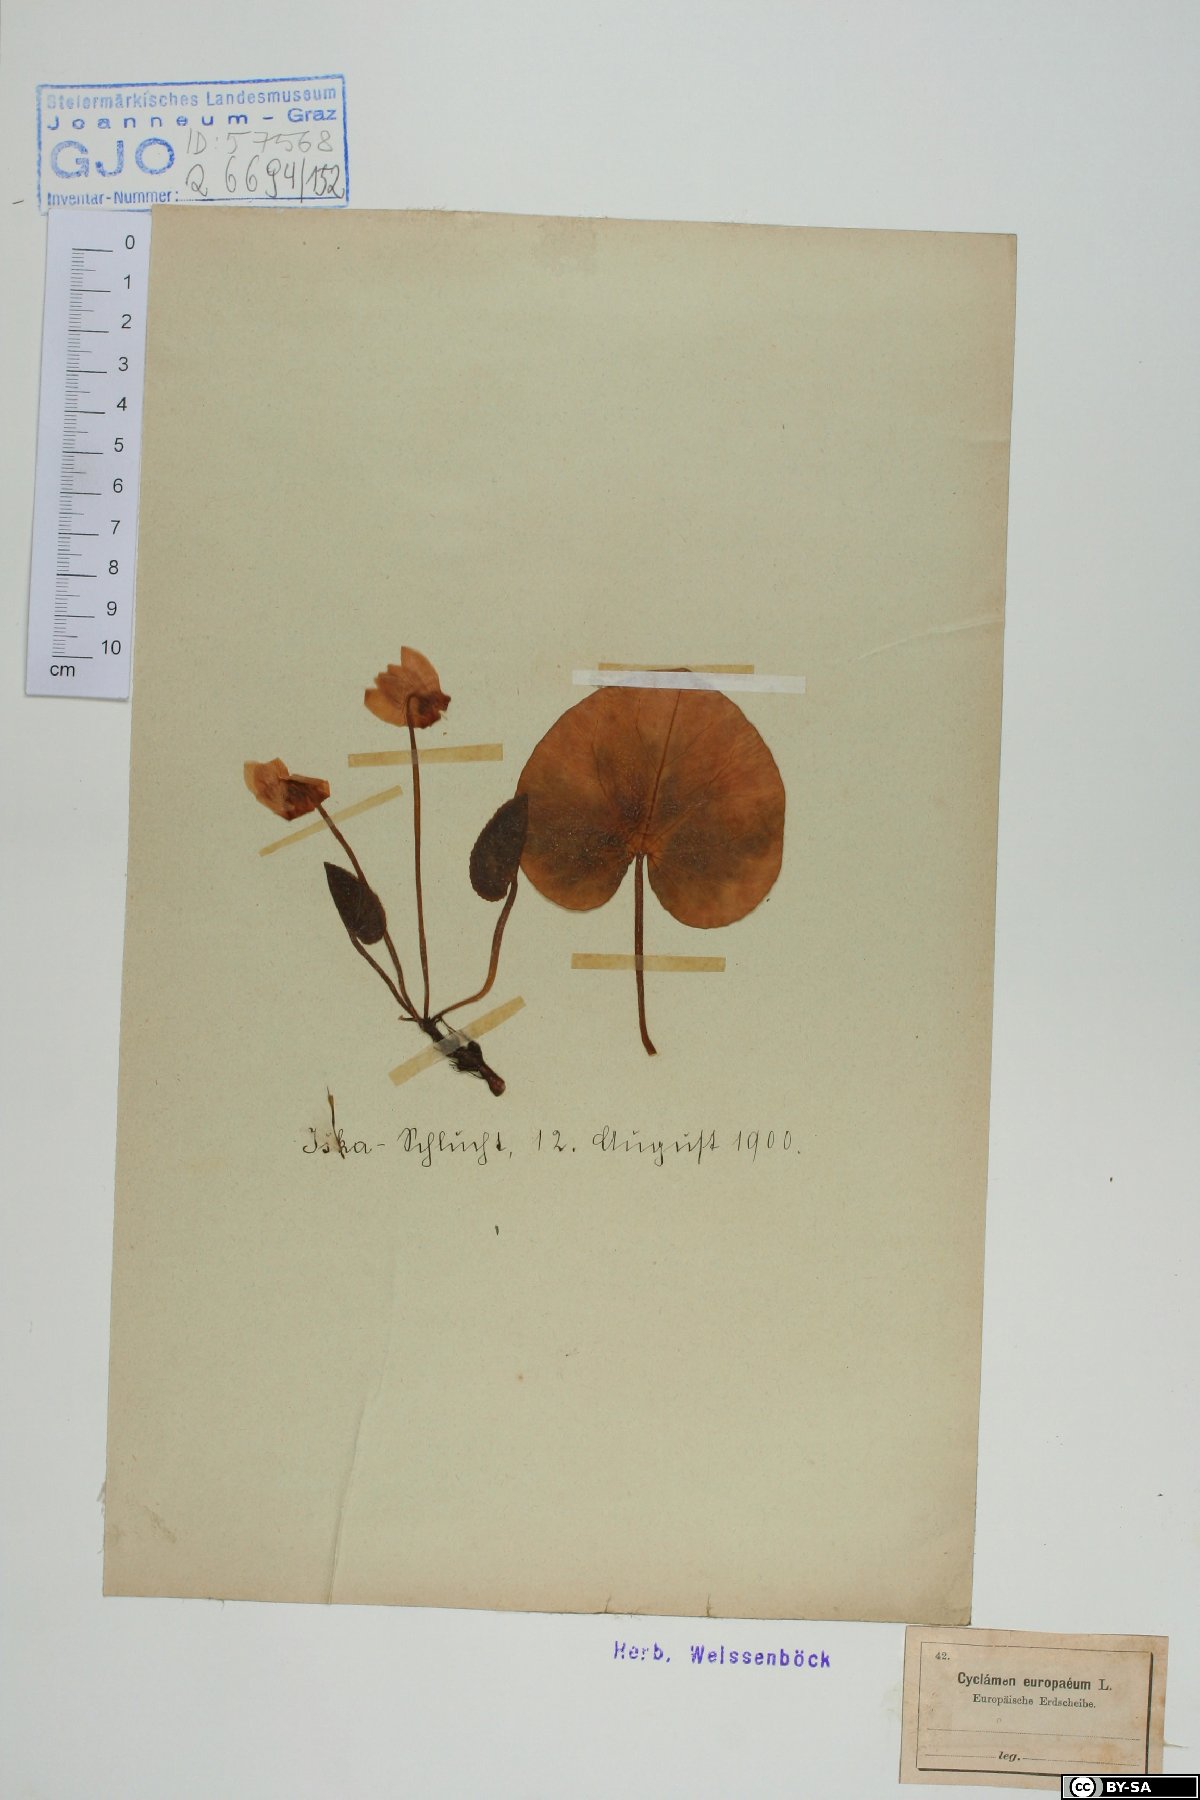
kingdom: Plantae
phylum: Tracheophyta
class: Magnoliopsida
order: Ericales
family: Primulaceae
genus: Cyclamen
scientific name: Cyclamen purpurascens
